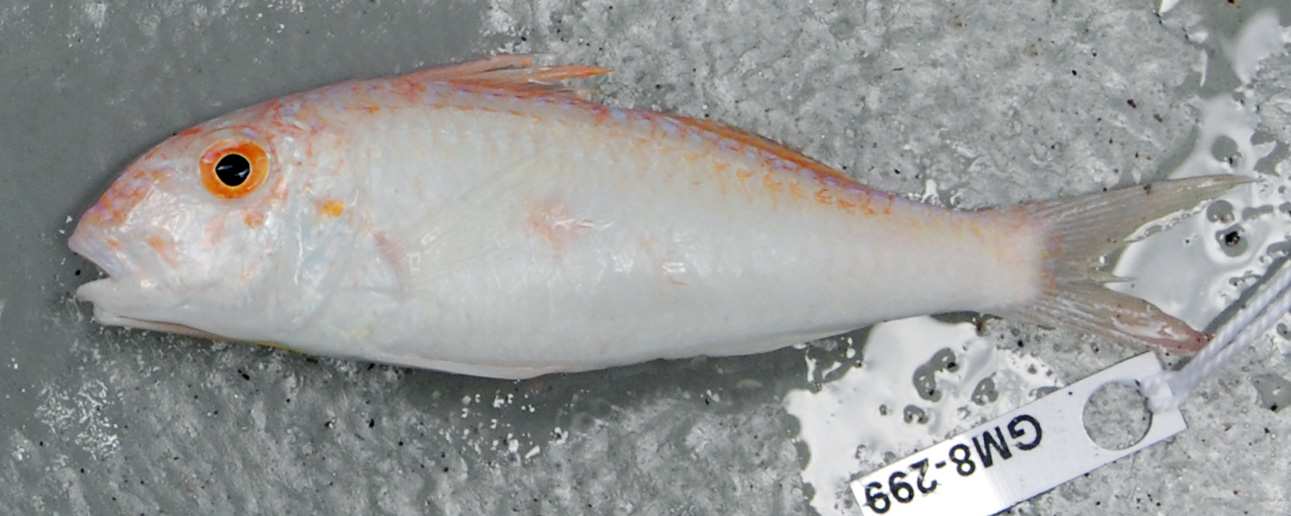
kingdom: Animalia
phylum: Chordata
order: Perciformes
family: Mullidae
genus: Parupeneus
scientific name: Parupeneus procerigena
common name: Deep-cheek goatfish
